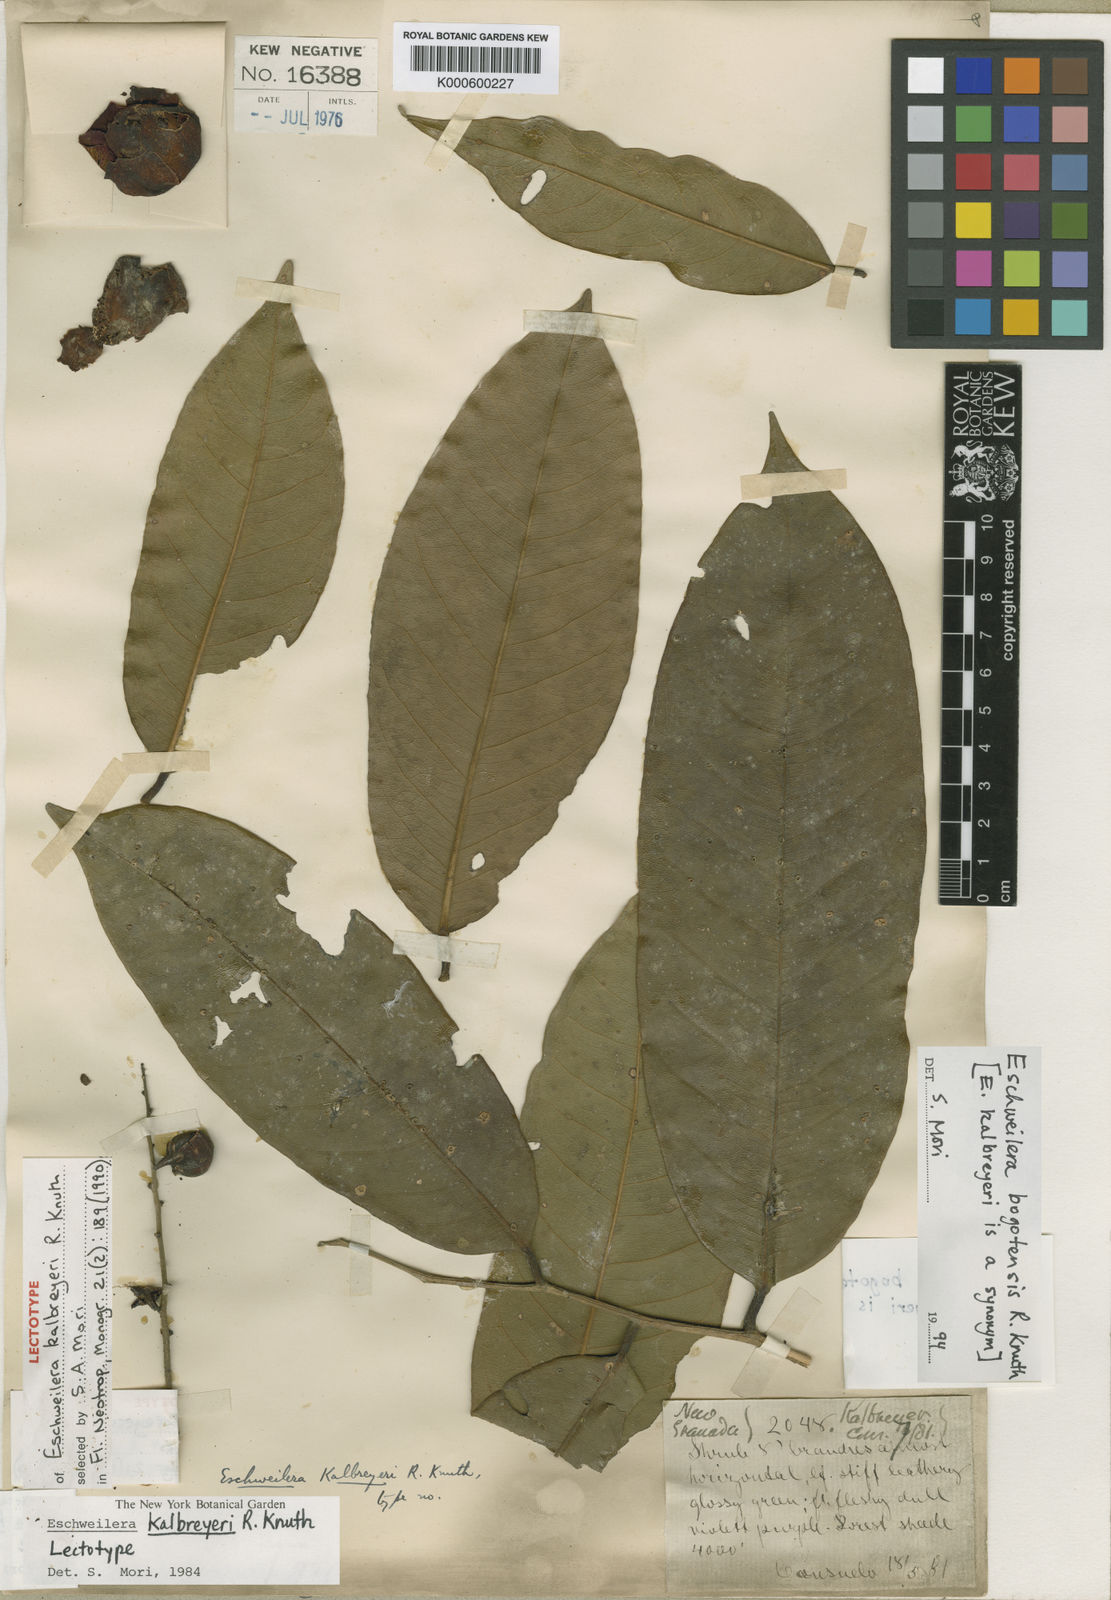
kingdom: Plantae
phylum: Tracheophyta
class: Magnoliopsida
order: Ericales
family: Lecythidaceae
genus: Eschweilera
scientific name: Eschweilera bogotensis
